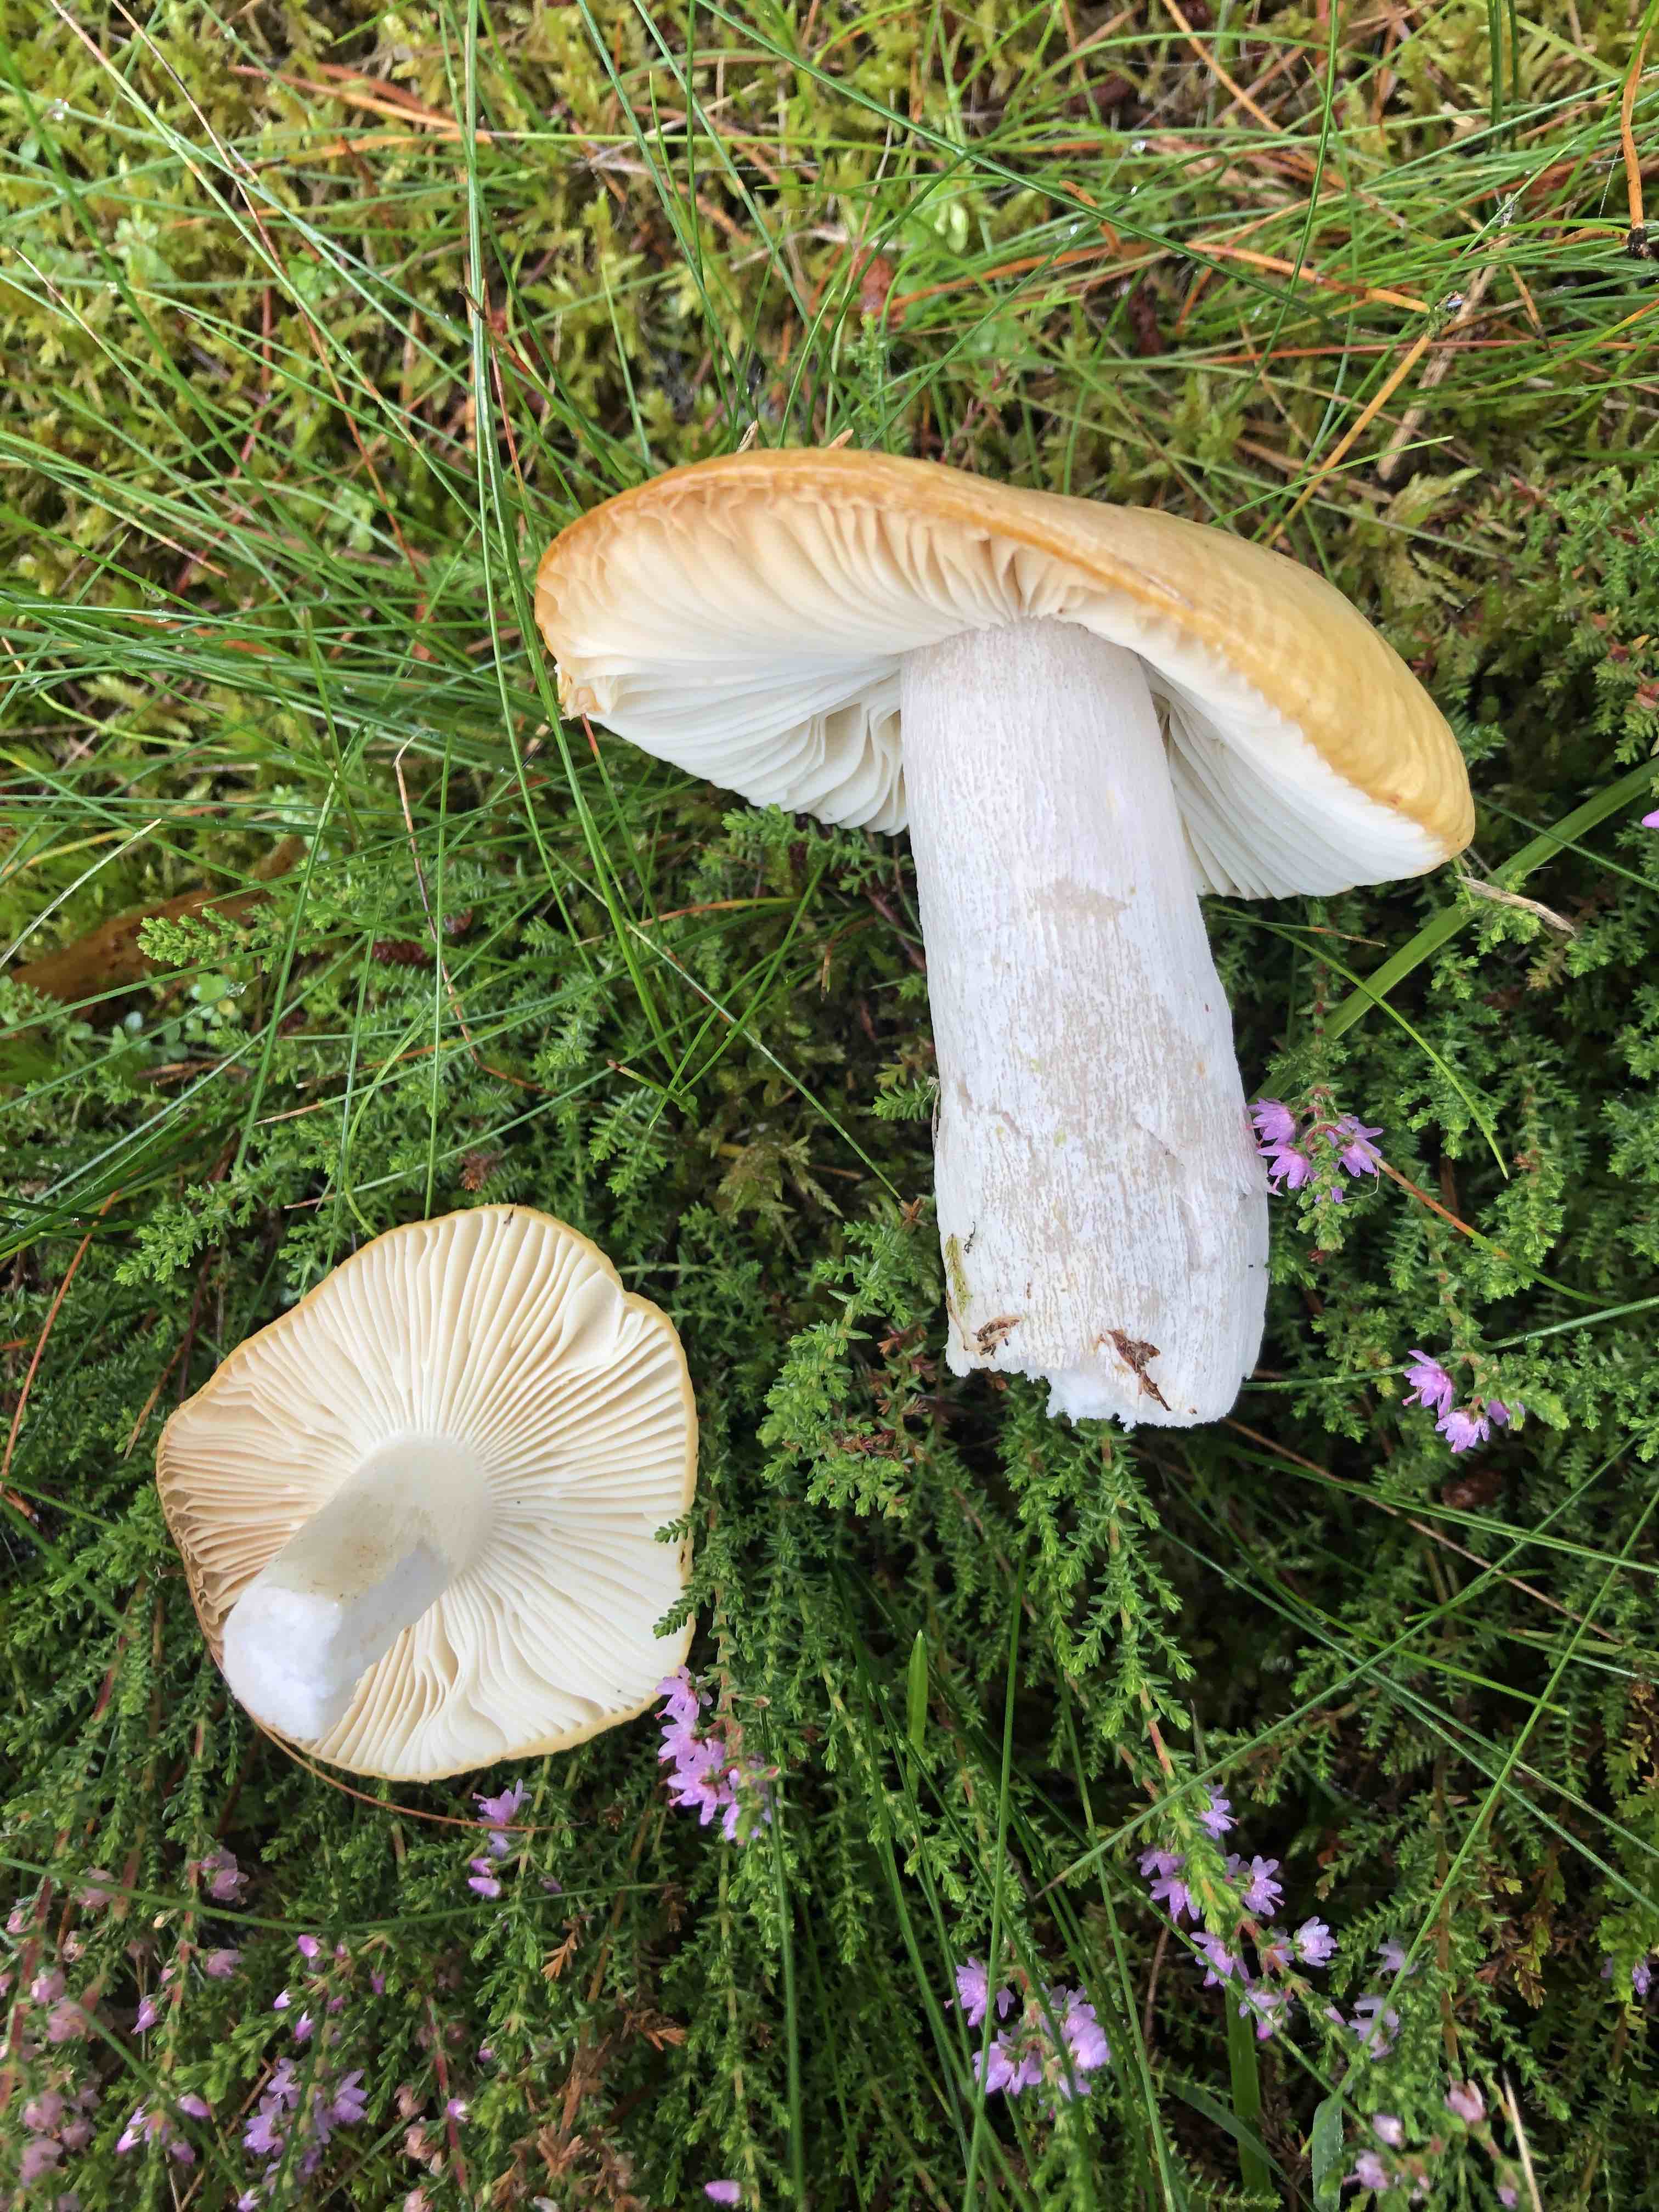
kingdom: Fungi
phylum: Basidiomycota
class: Agaricomycetes
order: Russulales
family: Russulaceae
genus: Russula
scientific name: Russula ochroleuca
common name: okkergul skørhat
